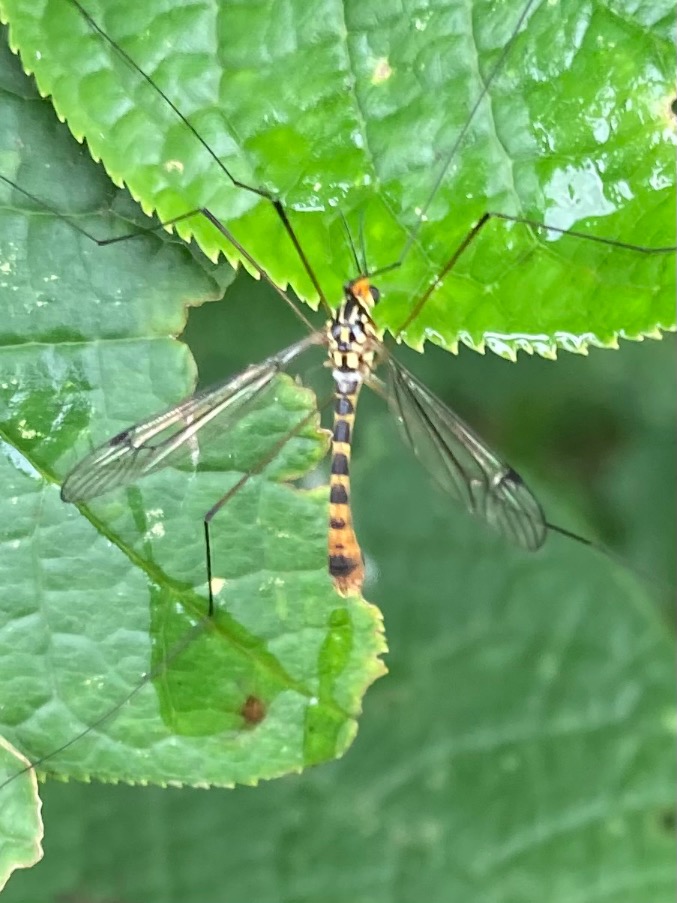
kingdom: Animalia
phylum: Arthropoda
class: Insecta
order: Diptera
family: Tipulidae
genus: Nephrotoma
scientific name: Nephrotoma flavipalpis
